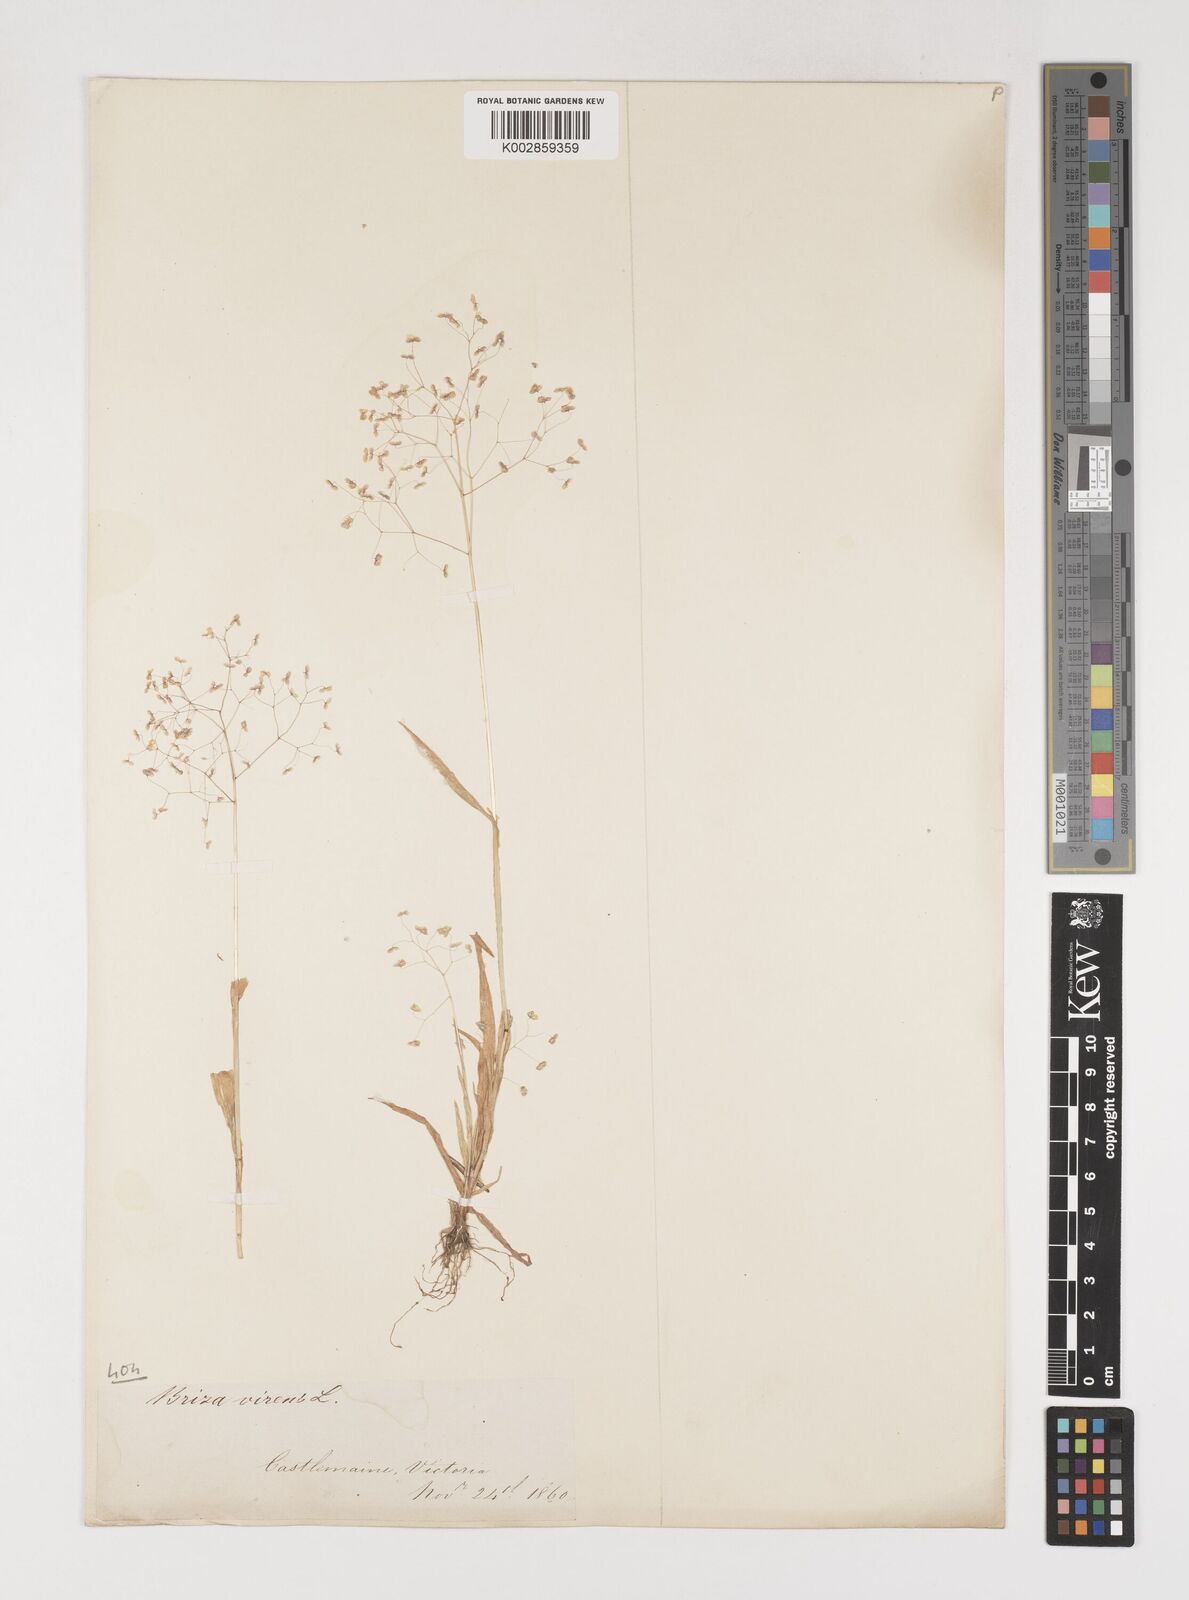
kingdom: Plantae
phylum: Tracheophyta
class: Liliopsida
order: Poales
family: Poaceae
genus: Briza
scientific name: Briza minor
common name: Lesser quaking-grass
